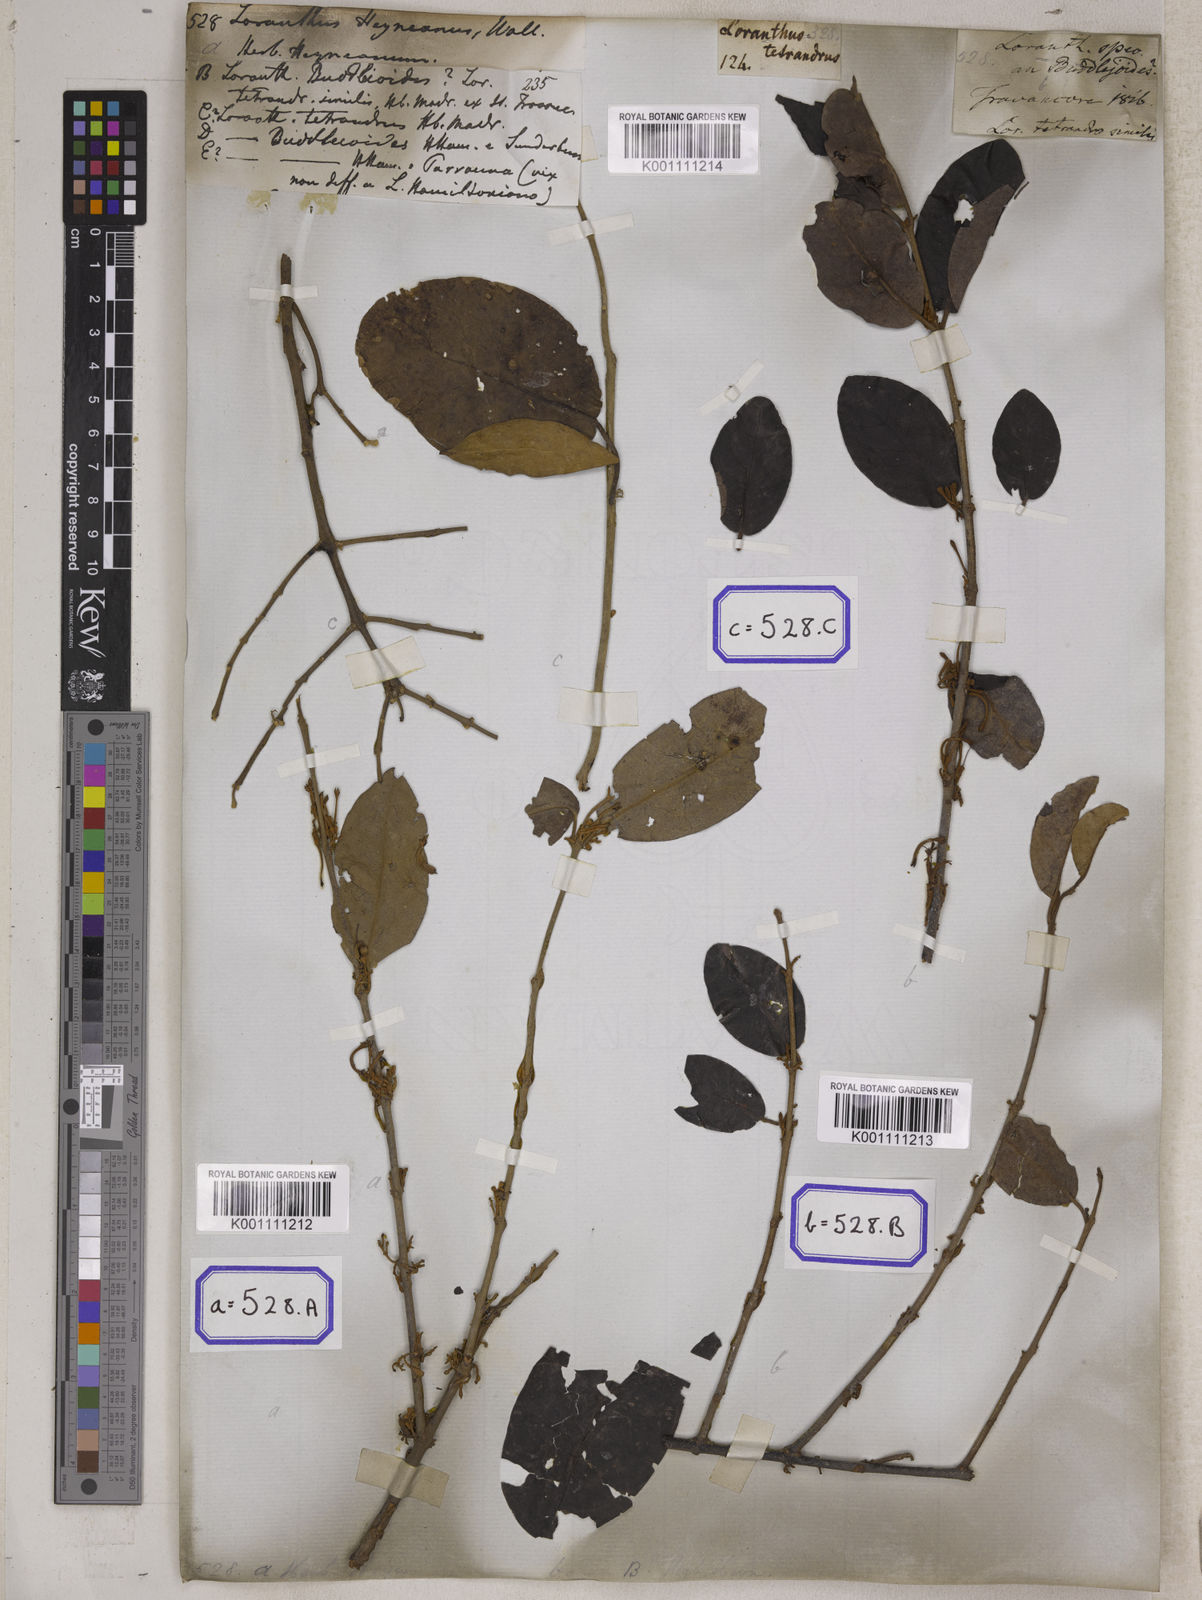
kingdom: Plantae
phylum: Tracheophyta
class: Magnoliopsida
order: Santalales
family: Loranthaceae
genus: Scurrula
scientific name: Scurrula parasitica
